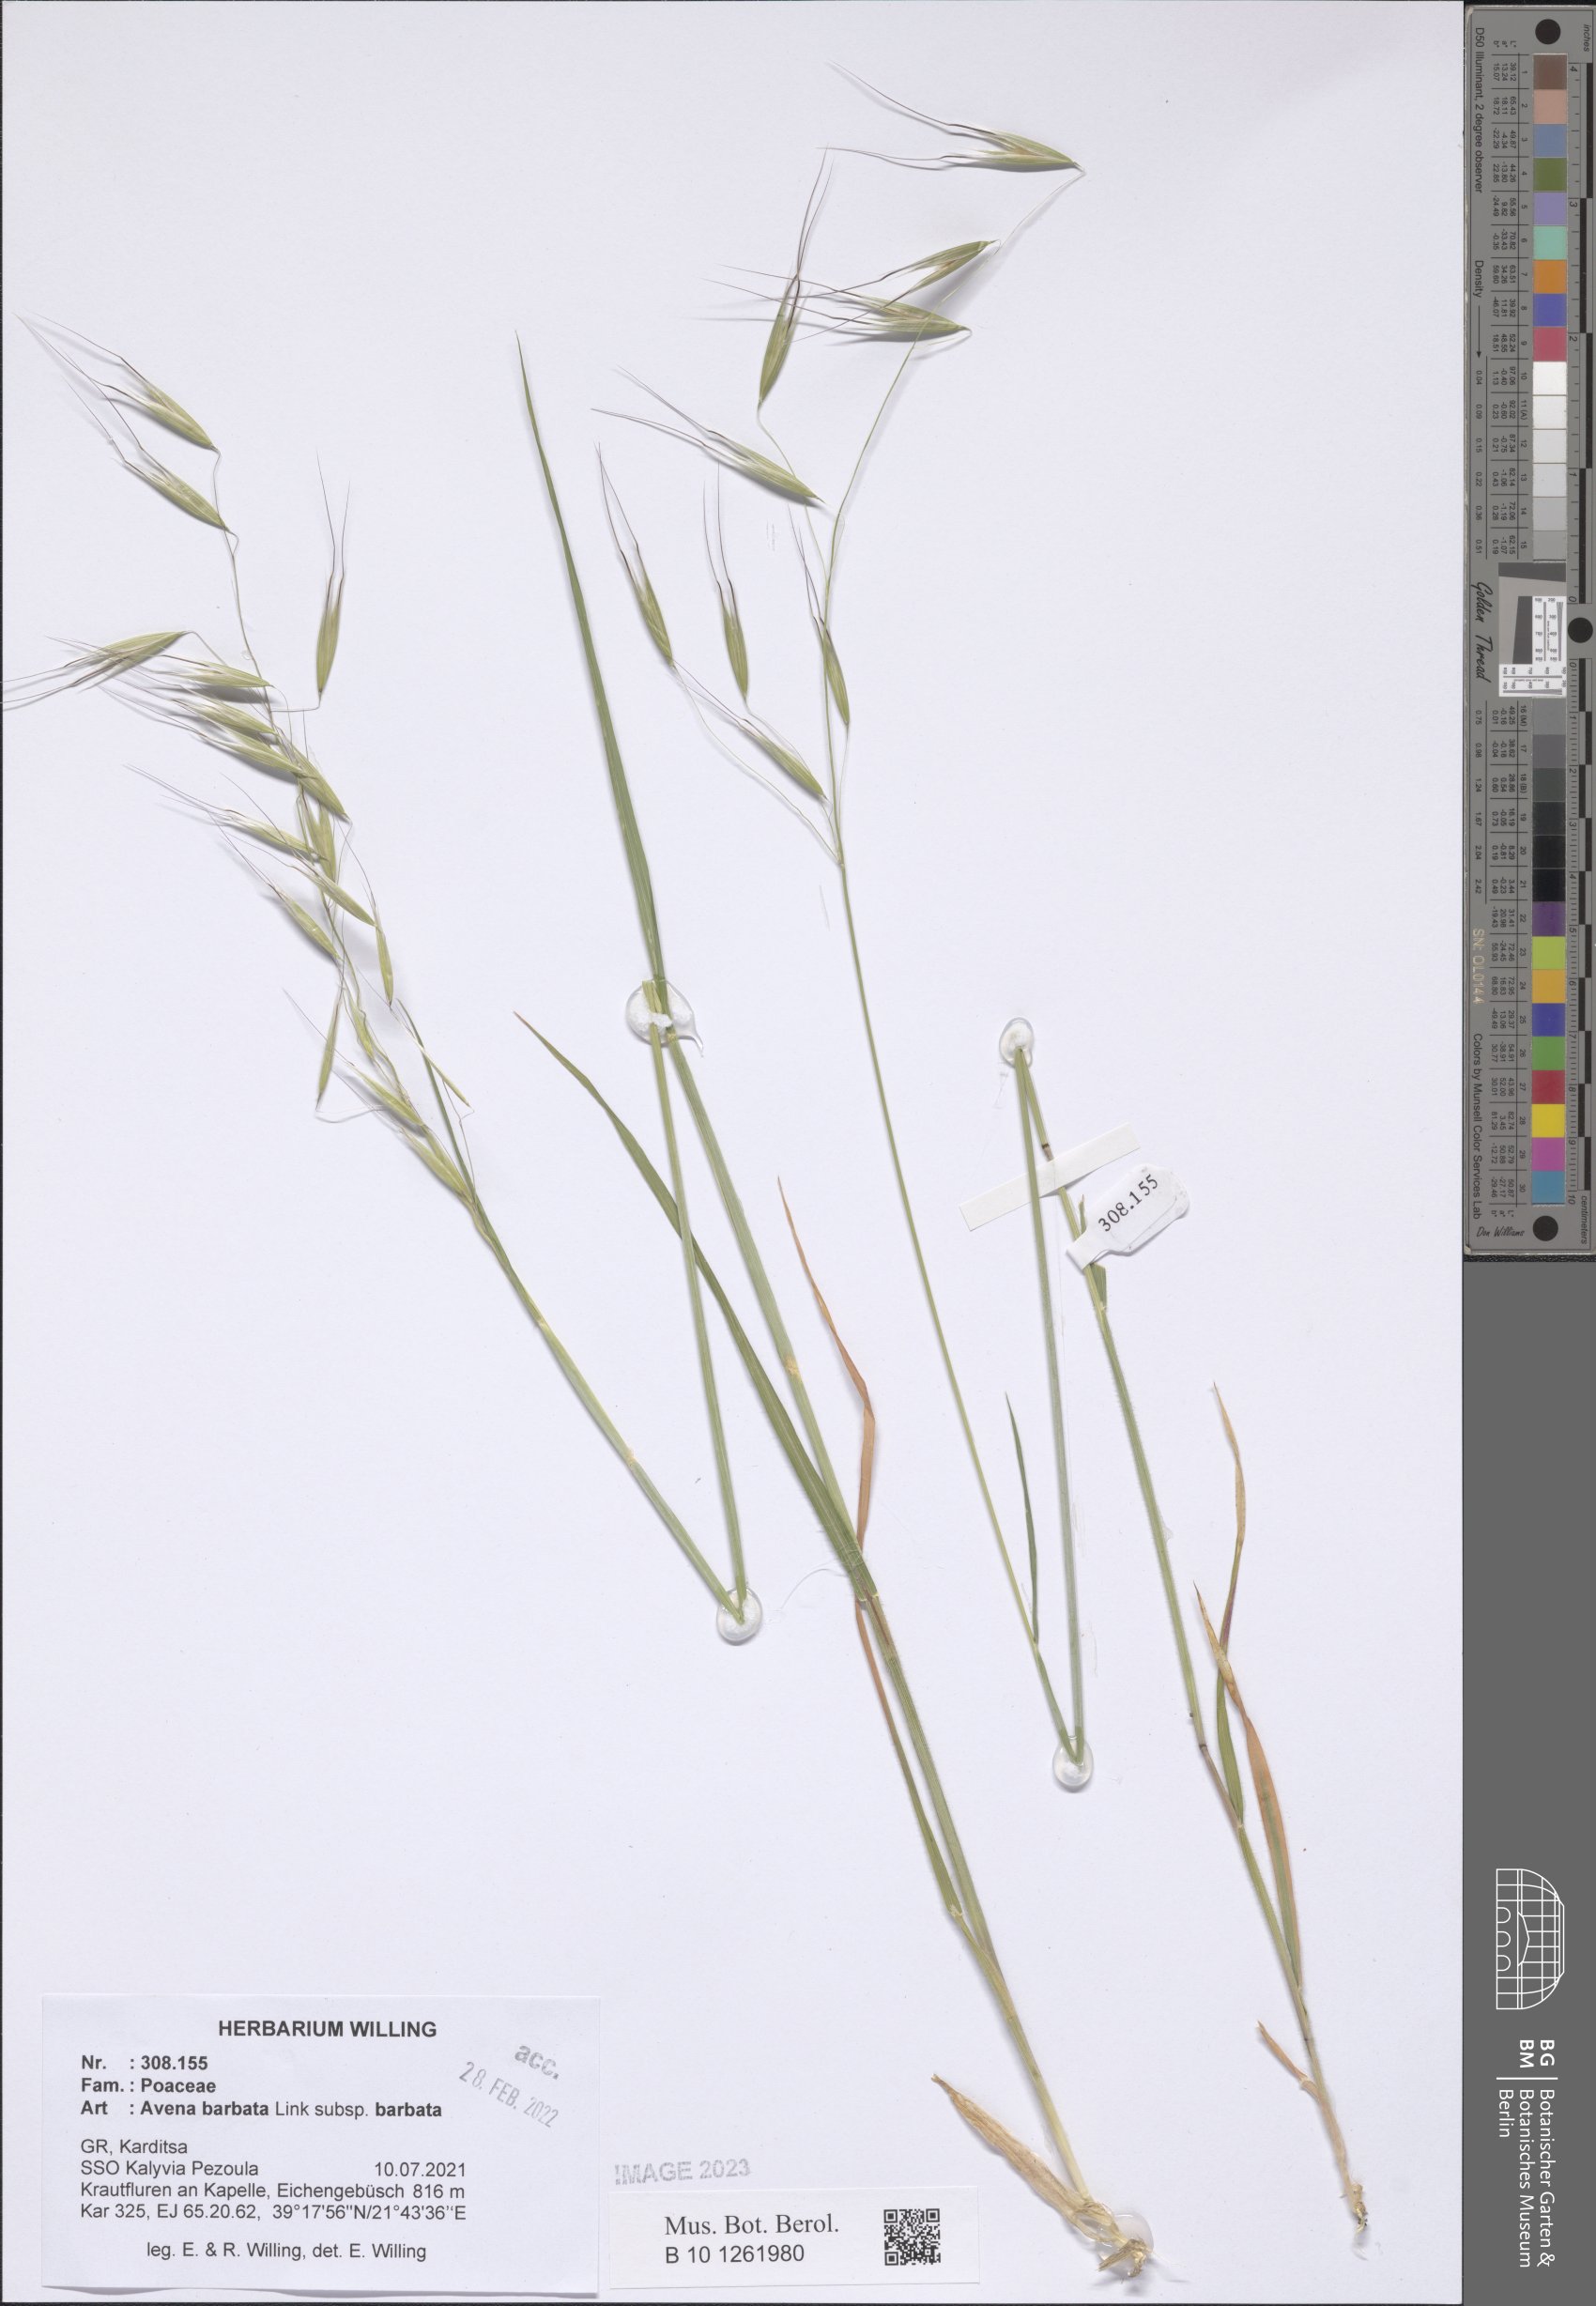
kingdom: Plantae
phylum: Tracheophyta
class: Liliopsida
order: Poales
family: Poaceae
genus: Avena
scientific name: Avena barbata
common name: Slender oat
